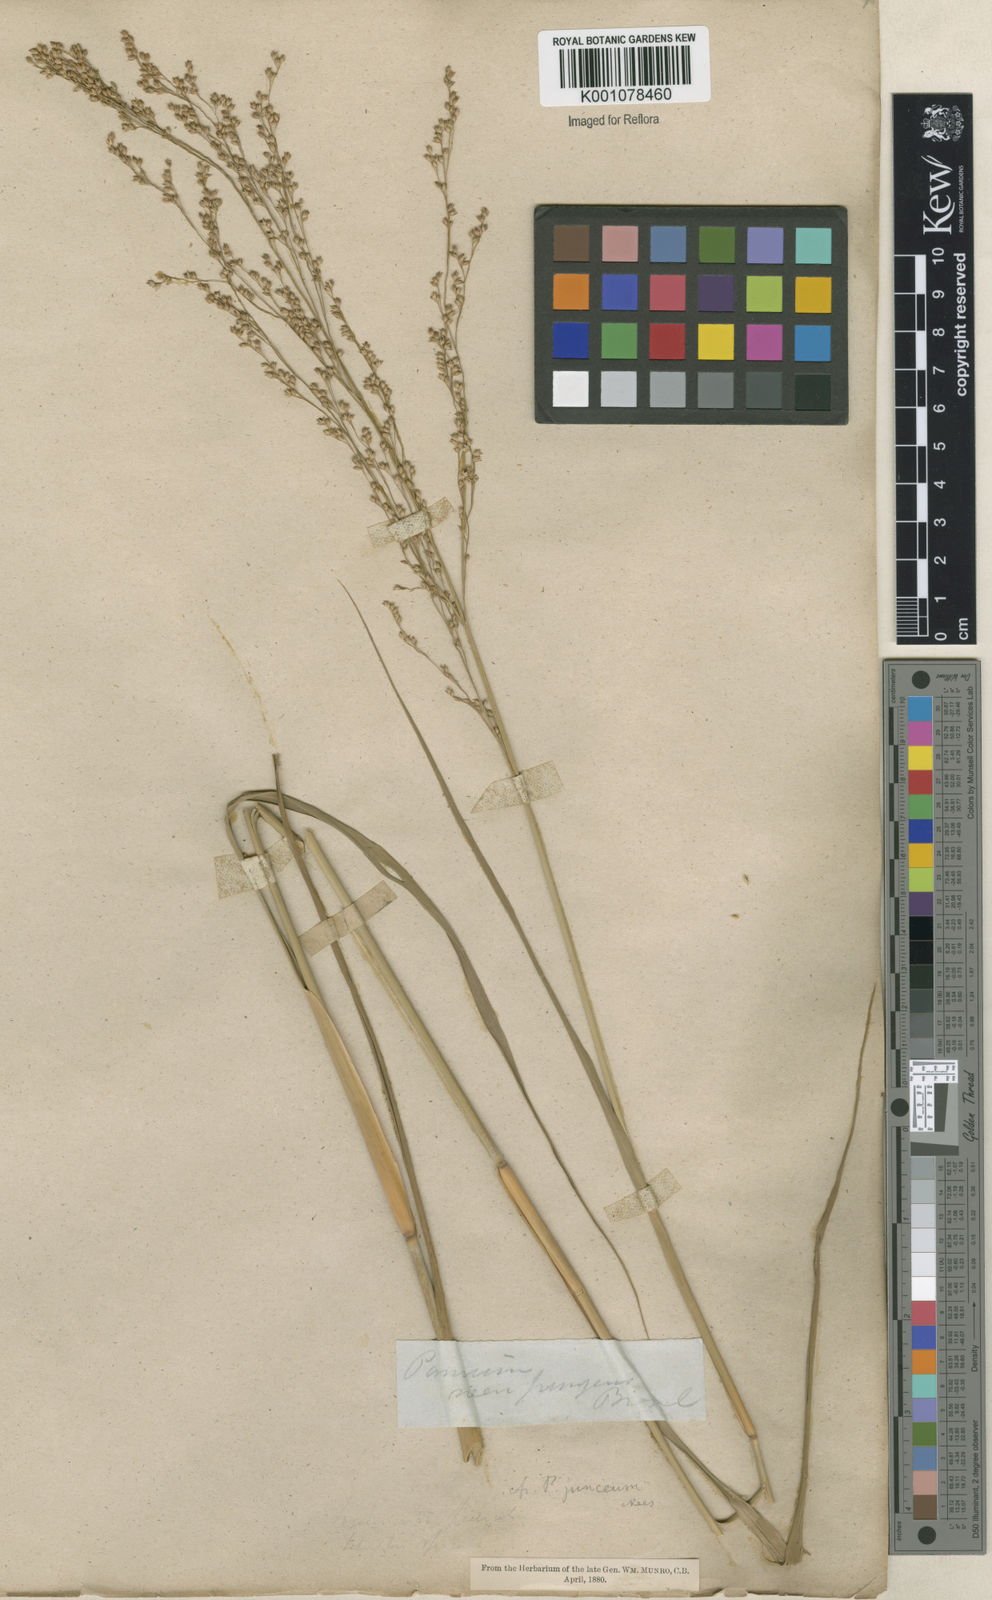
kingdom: Plantae
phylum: Tracheophyta
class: Liliopsida
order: Poales
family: Poaceae
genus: Panicum
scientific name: Panicum tricholaenoides
